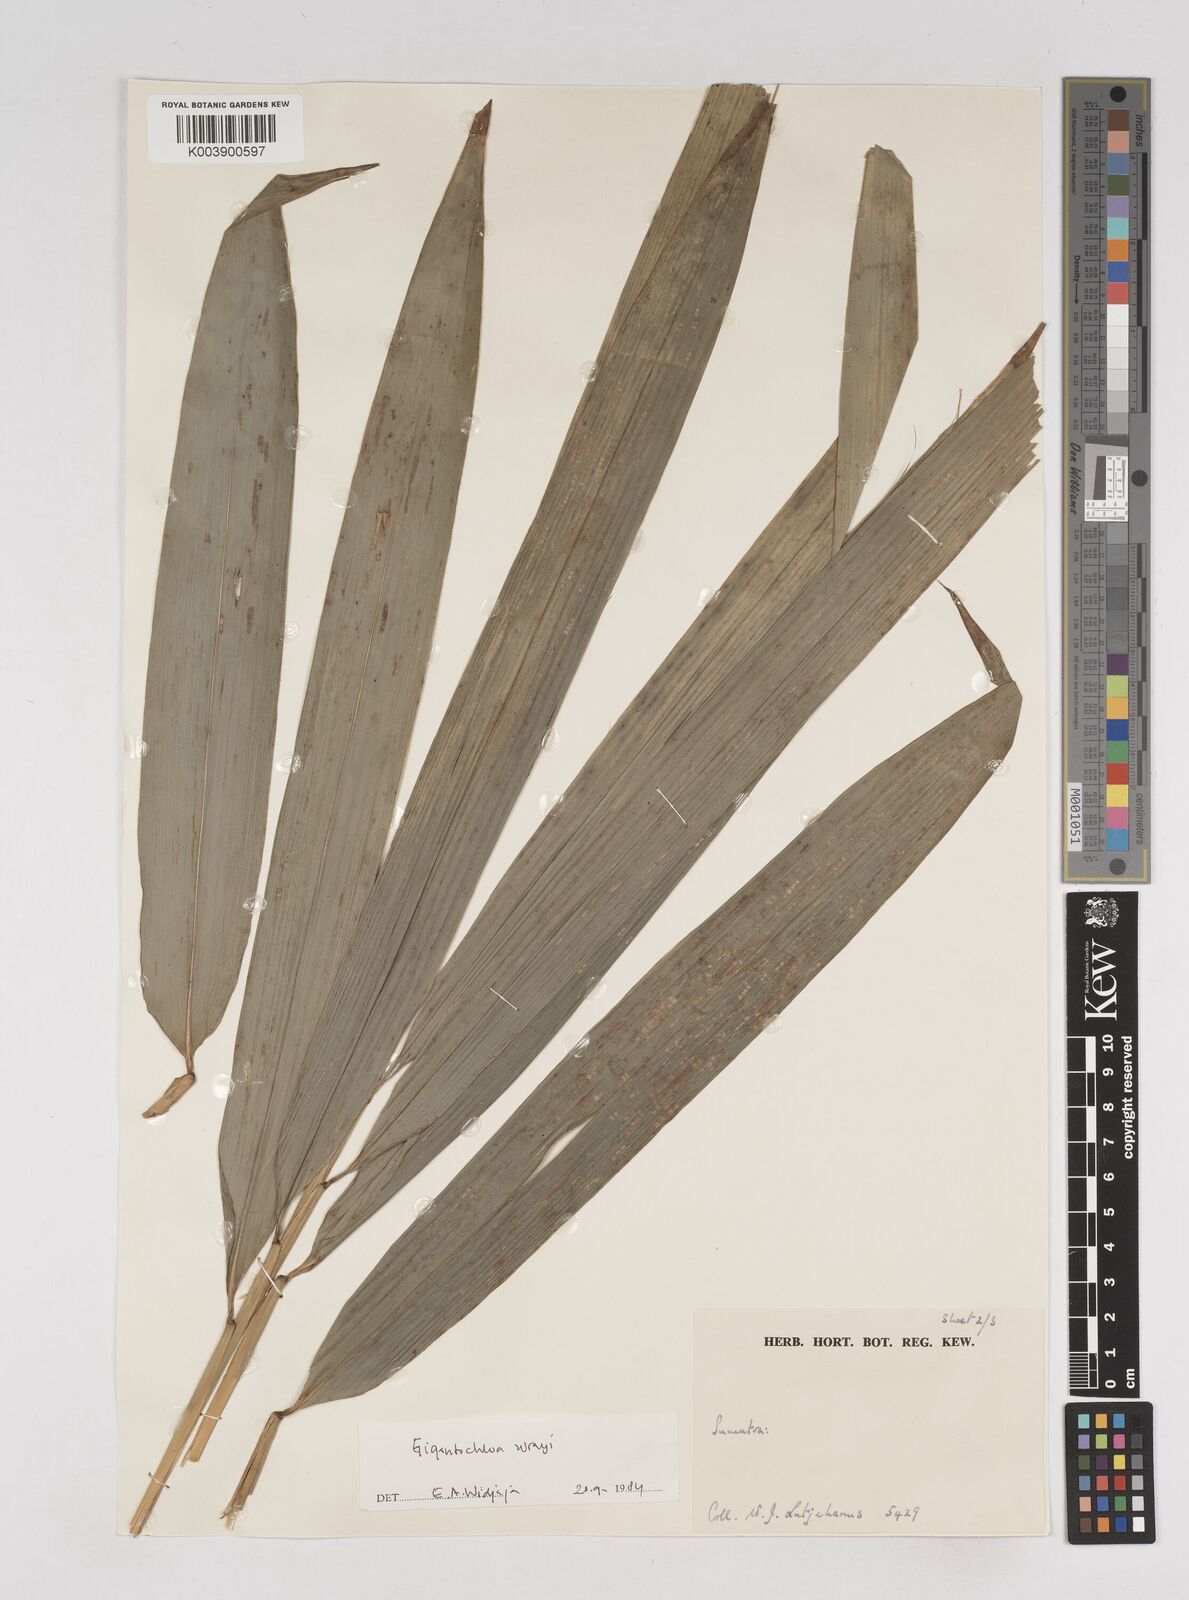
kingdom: Plantae
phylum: Tracheophyta
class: Liliopsida
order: Poales
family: Poaceae
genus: Gigantochloa
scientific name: Gigantochloa wrayi
